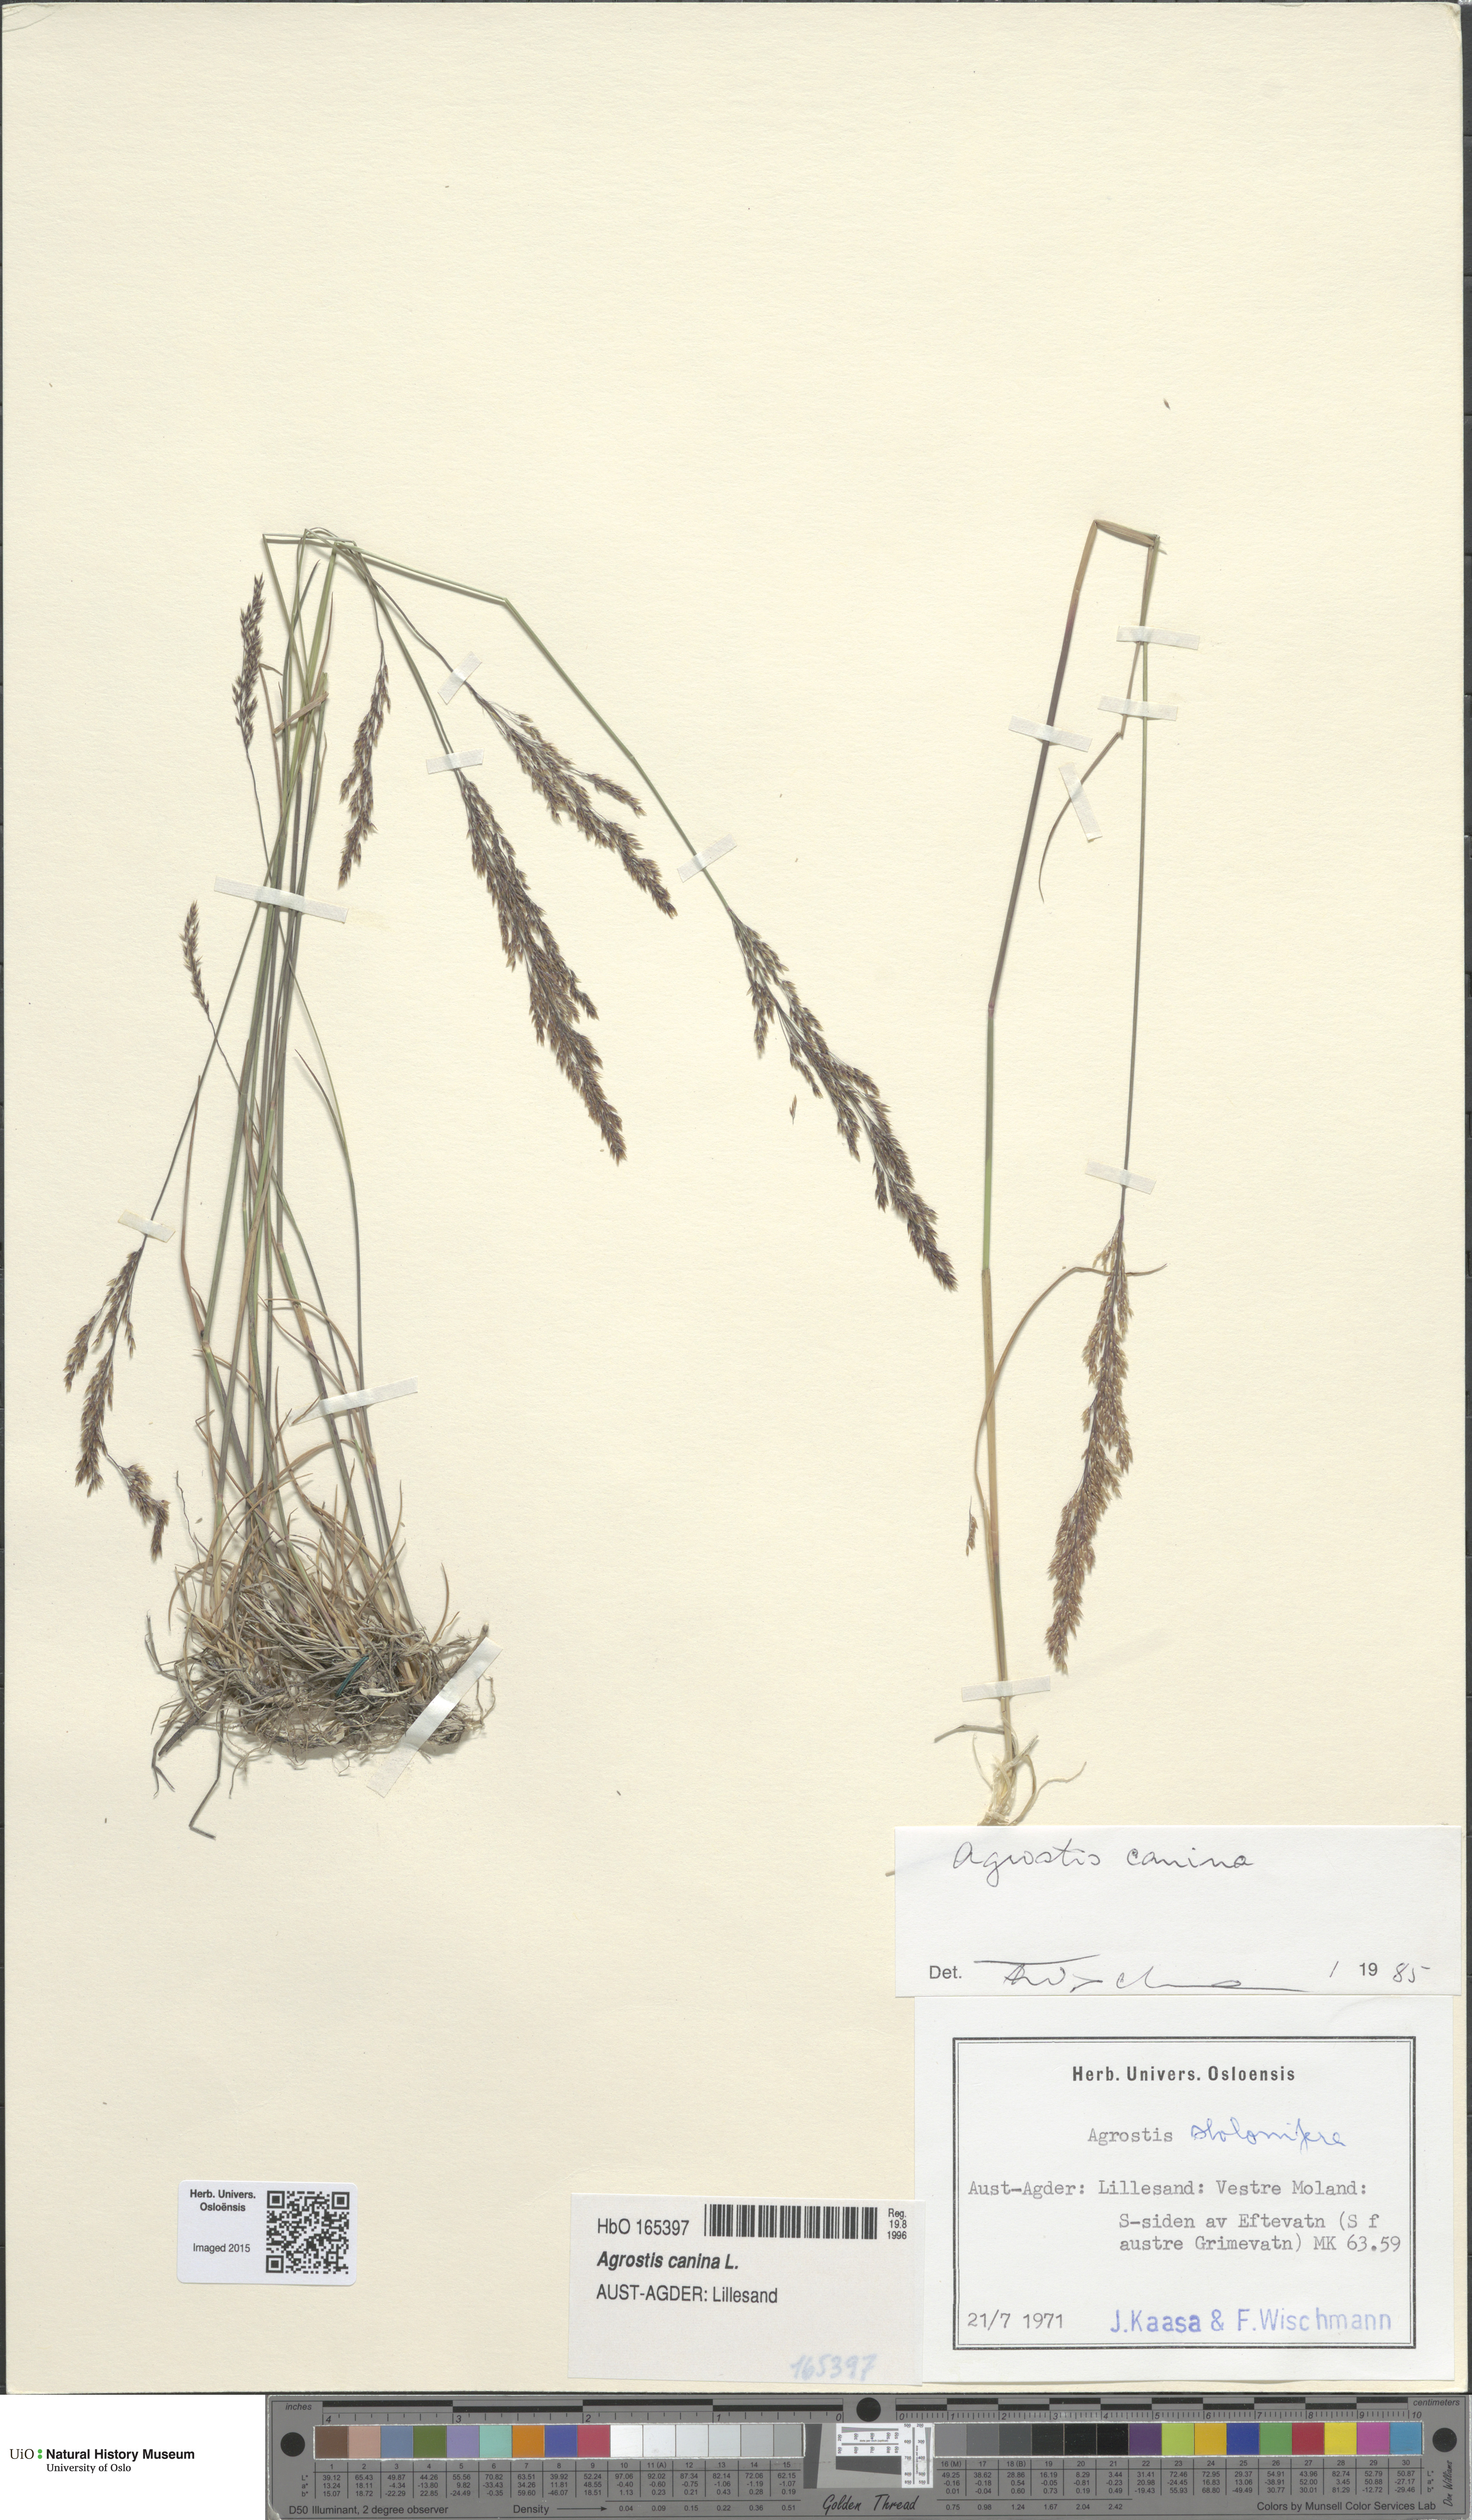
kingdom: Plantae
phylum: Tracheophyta
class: Liliopsida
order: Poales
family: Poaceae
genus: Agrostis
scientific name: Agrostis canina
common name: Velvet bent
